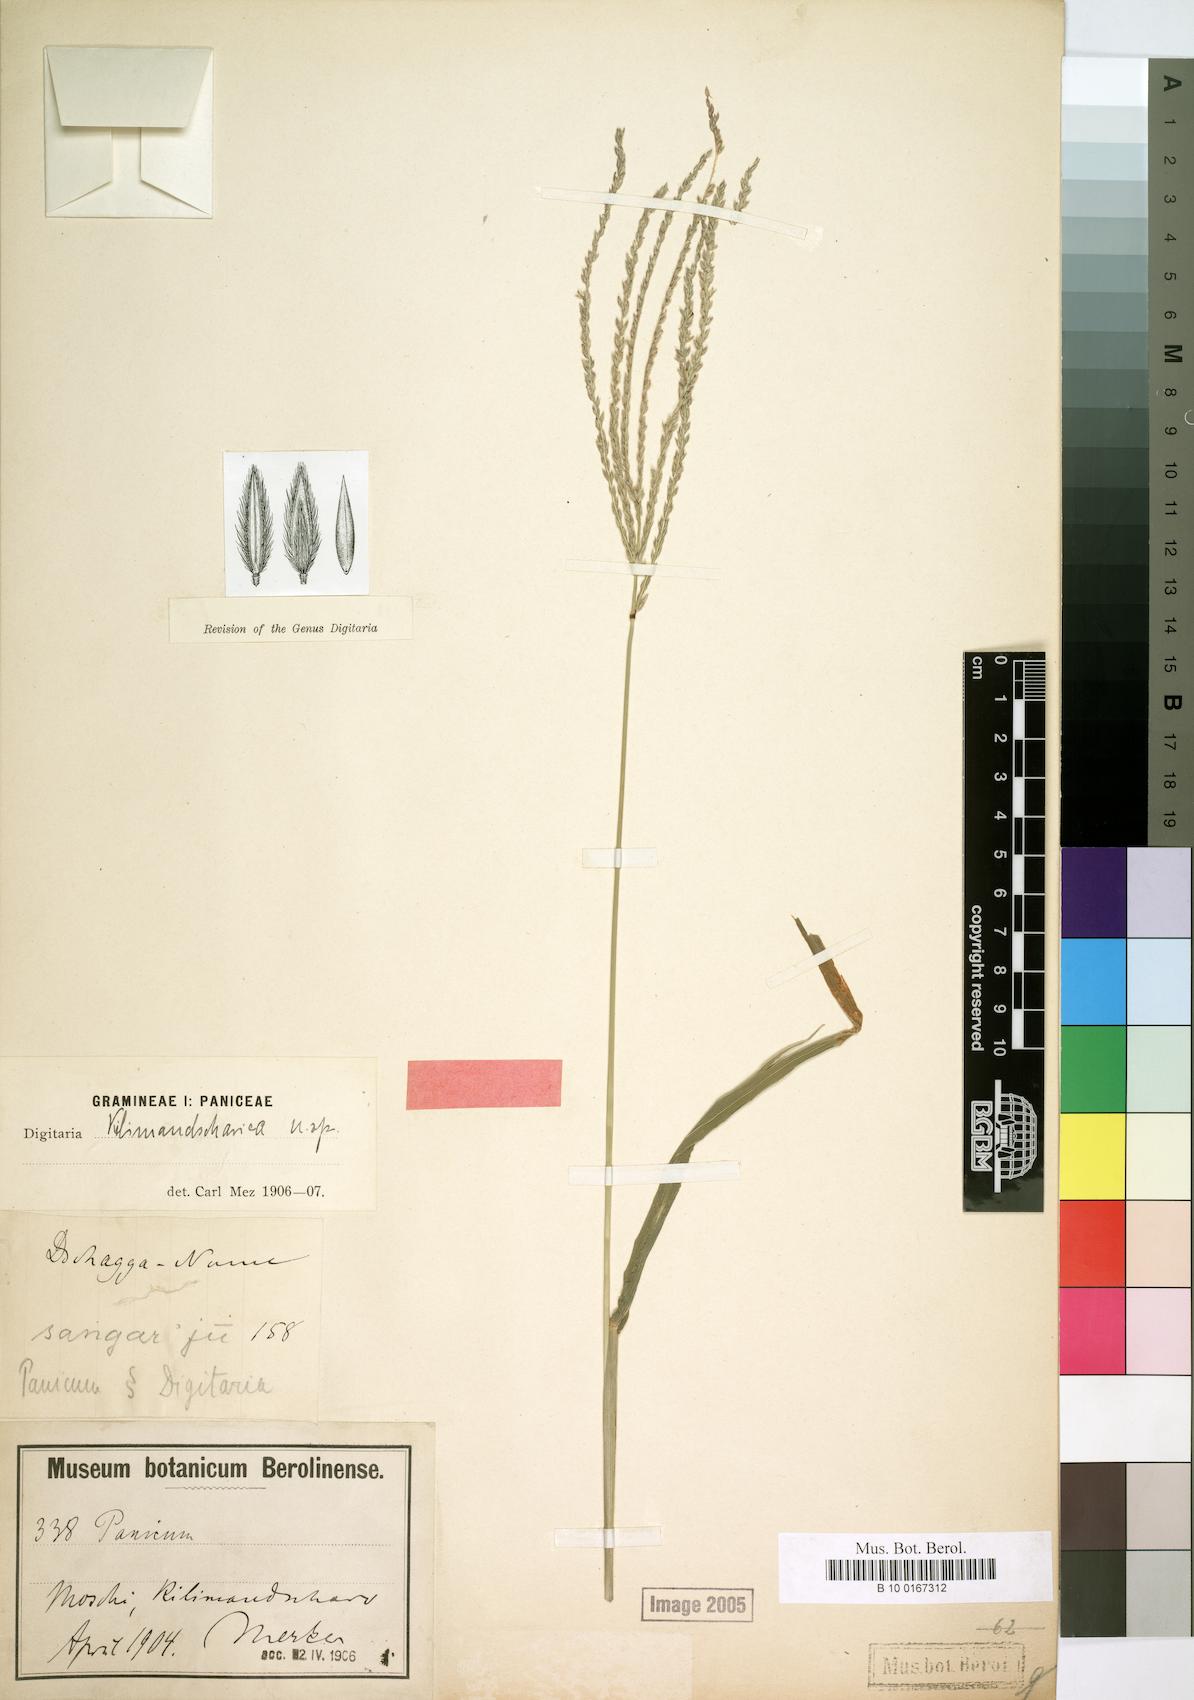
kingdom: Plantae
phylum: Tracheophyta
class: Liliopsida
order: Poales
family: Poaceae
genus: Digitaria
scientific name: Digitaria milanjiana
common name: Madagascar crabgrass
